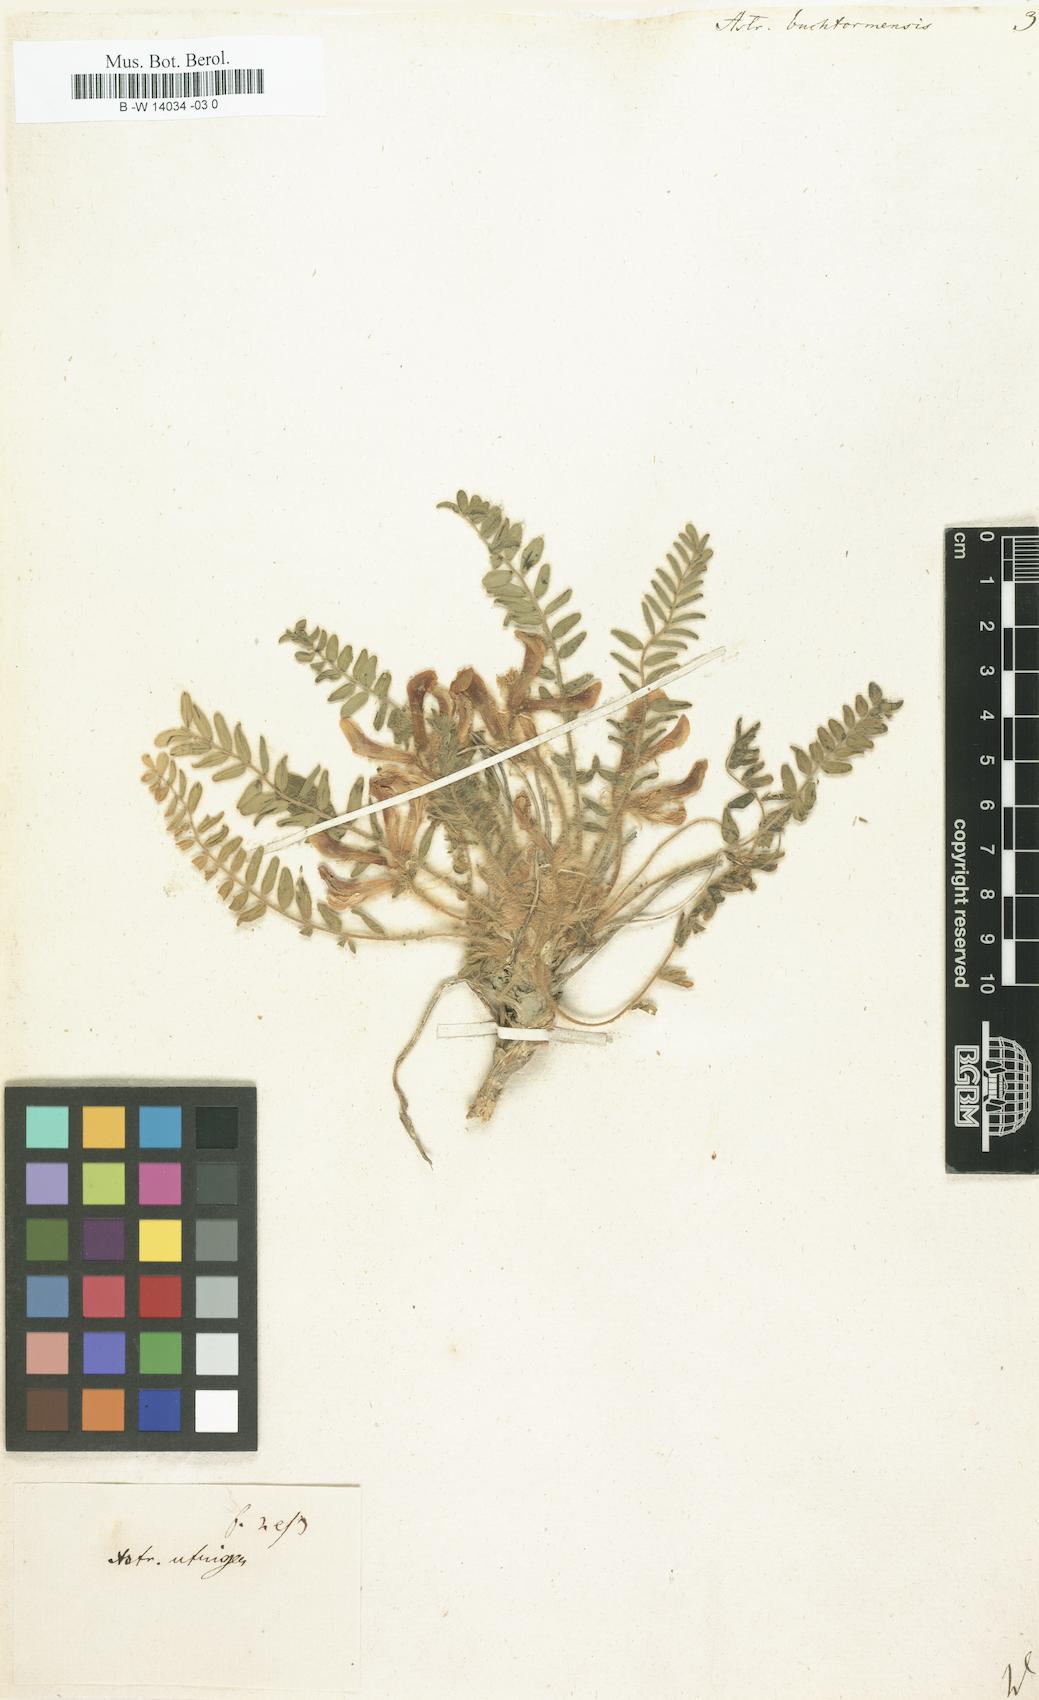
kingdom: Plantae
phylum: Tracheophyta
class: Magnoliopsida
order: Fabales
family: Fabaceae
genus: Astragalus
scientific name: Astragalus buchtormensis
